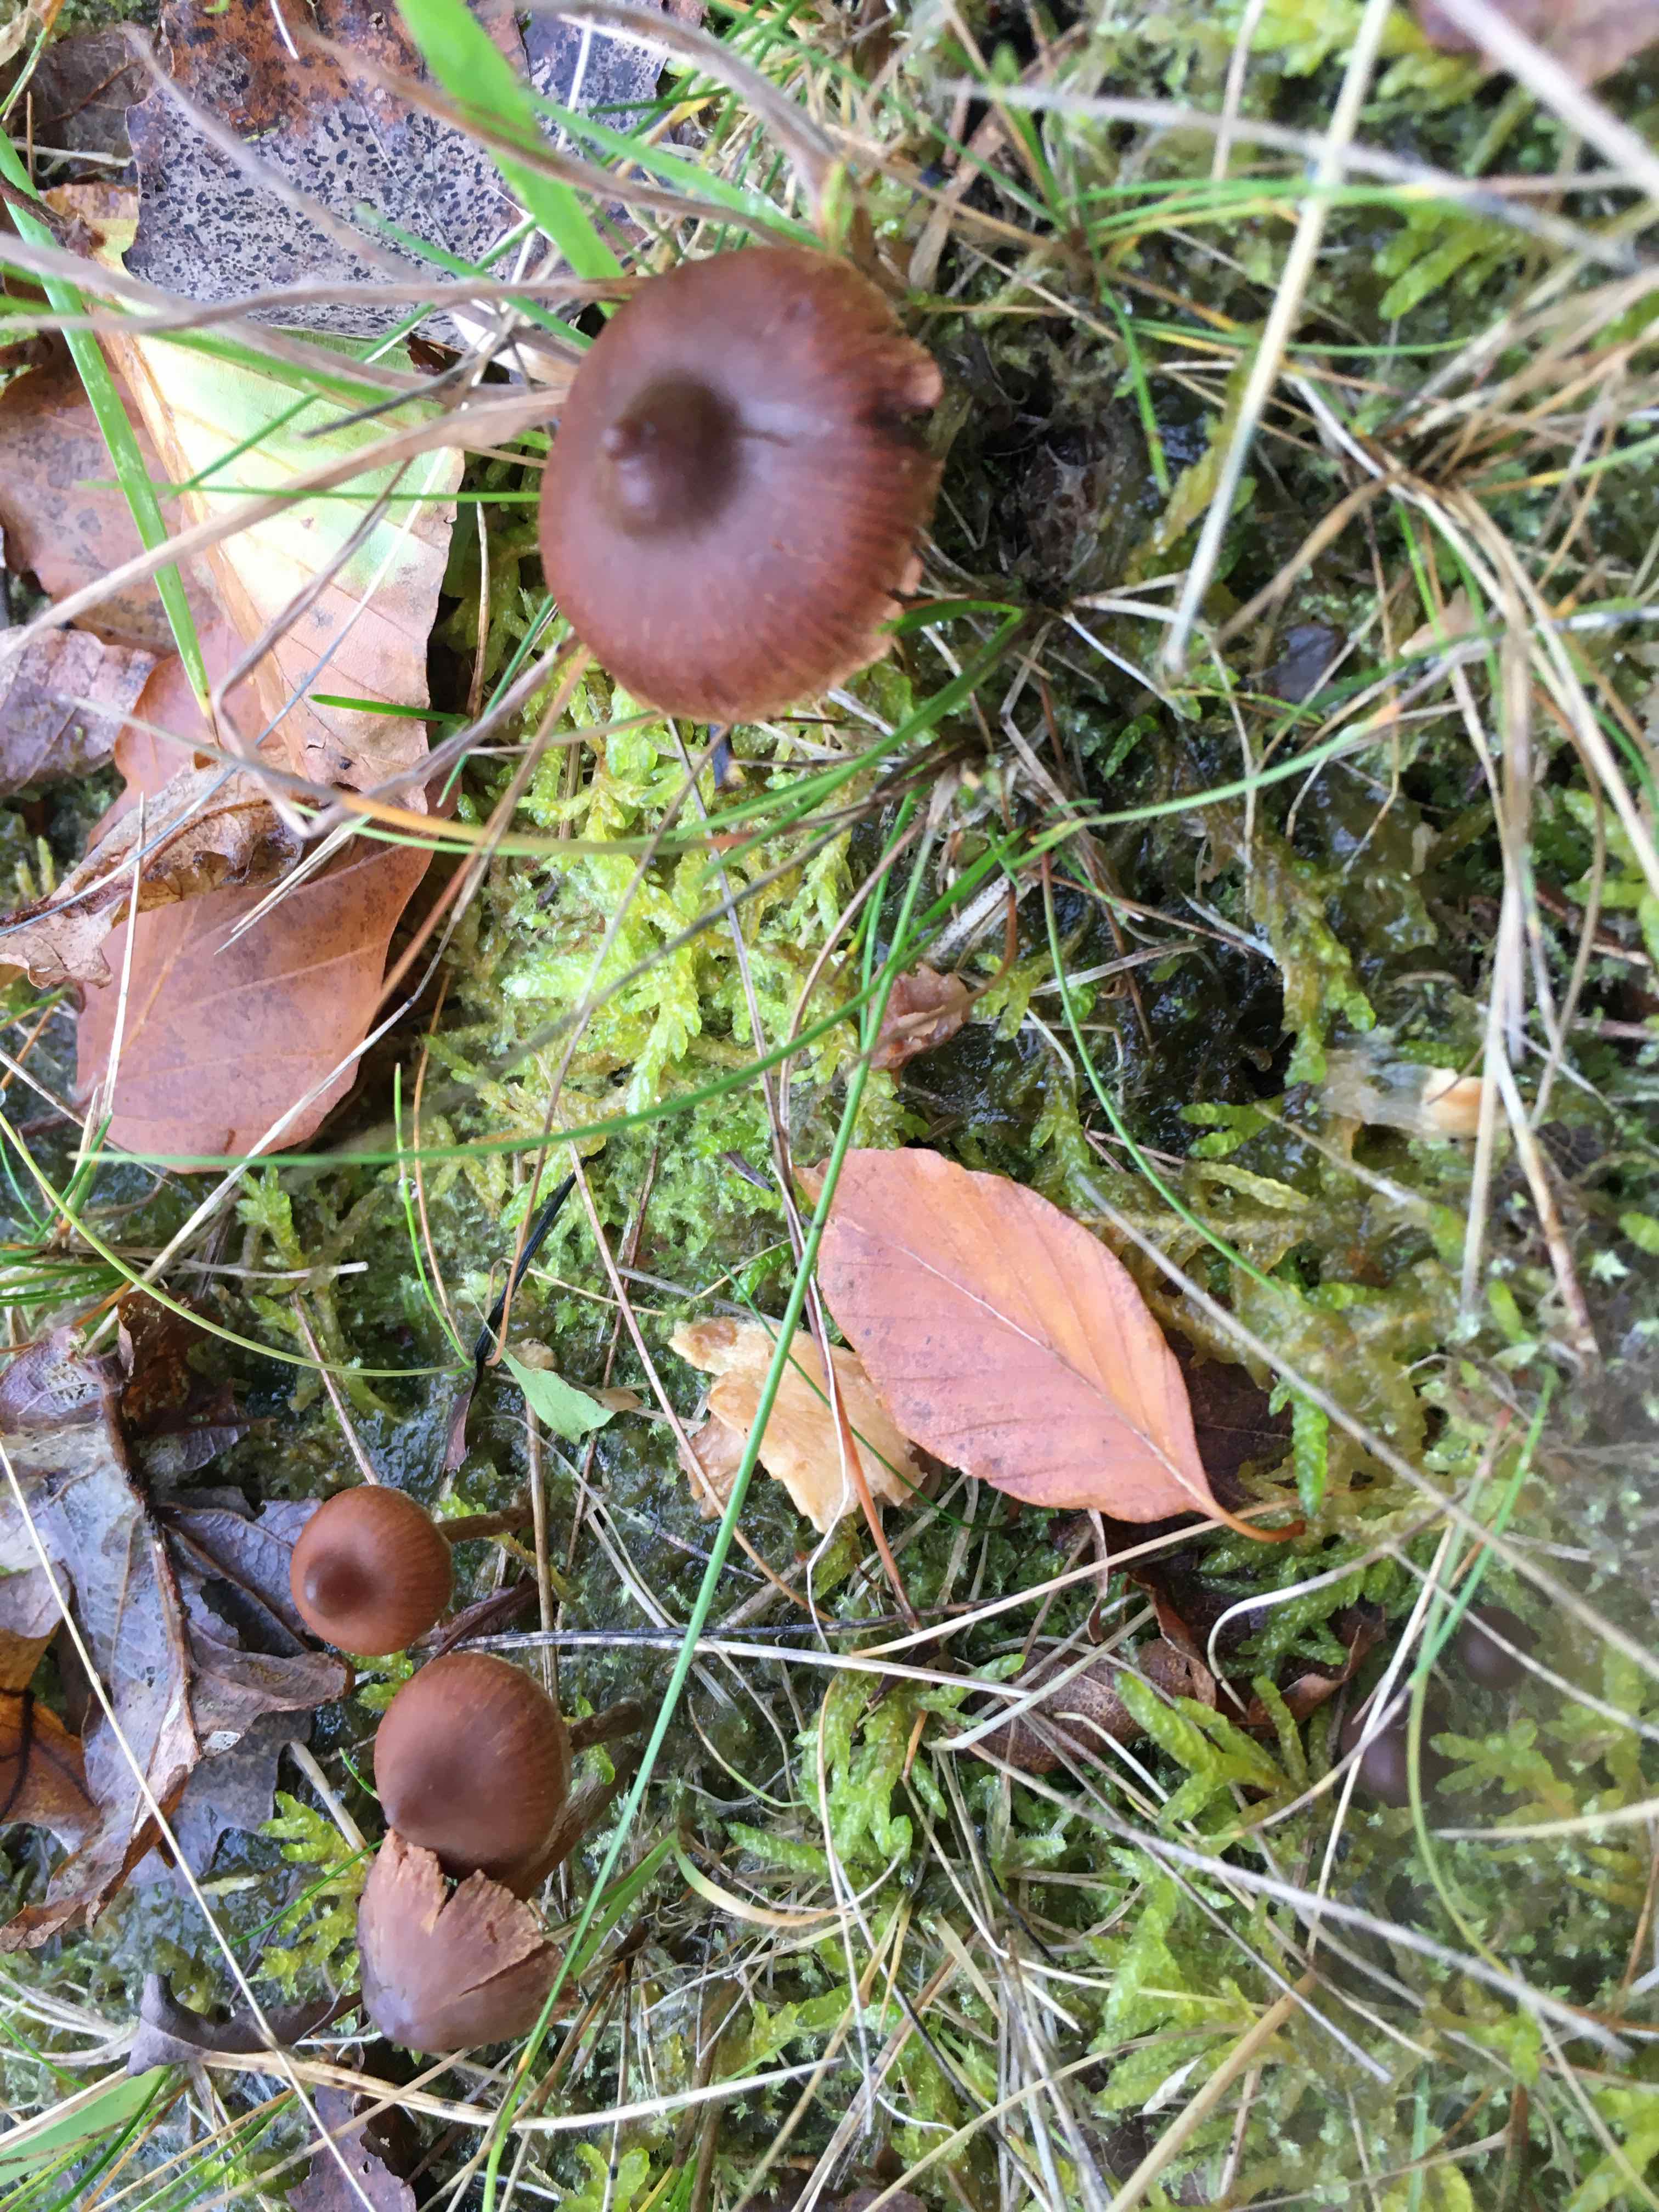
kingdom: Fungi
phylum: Basidiomycota
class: Agaricomycetes
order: Agaricales
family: Cortinariaceae
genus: Cortinarius
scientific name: Cortinarius
